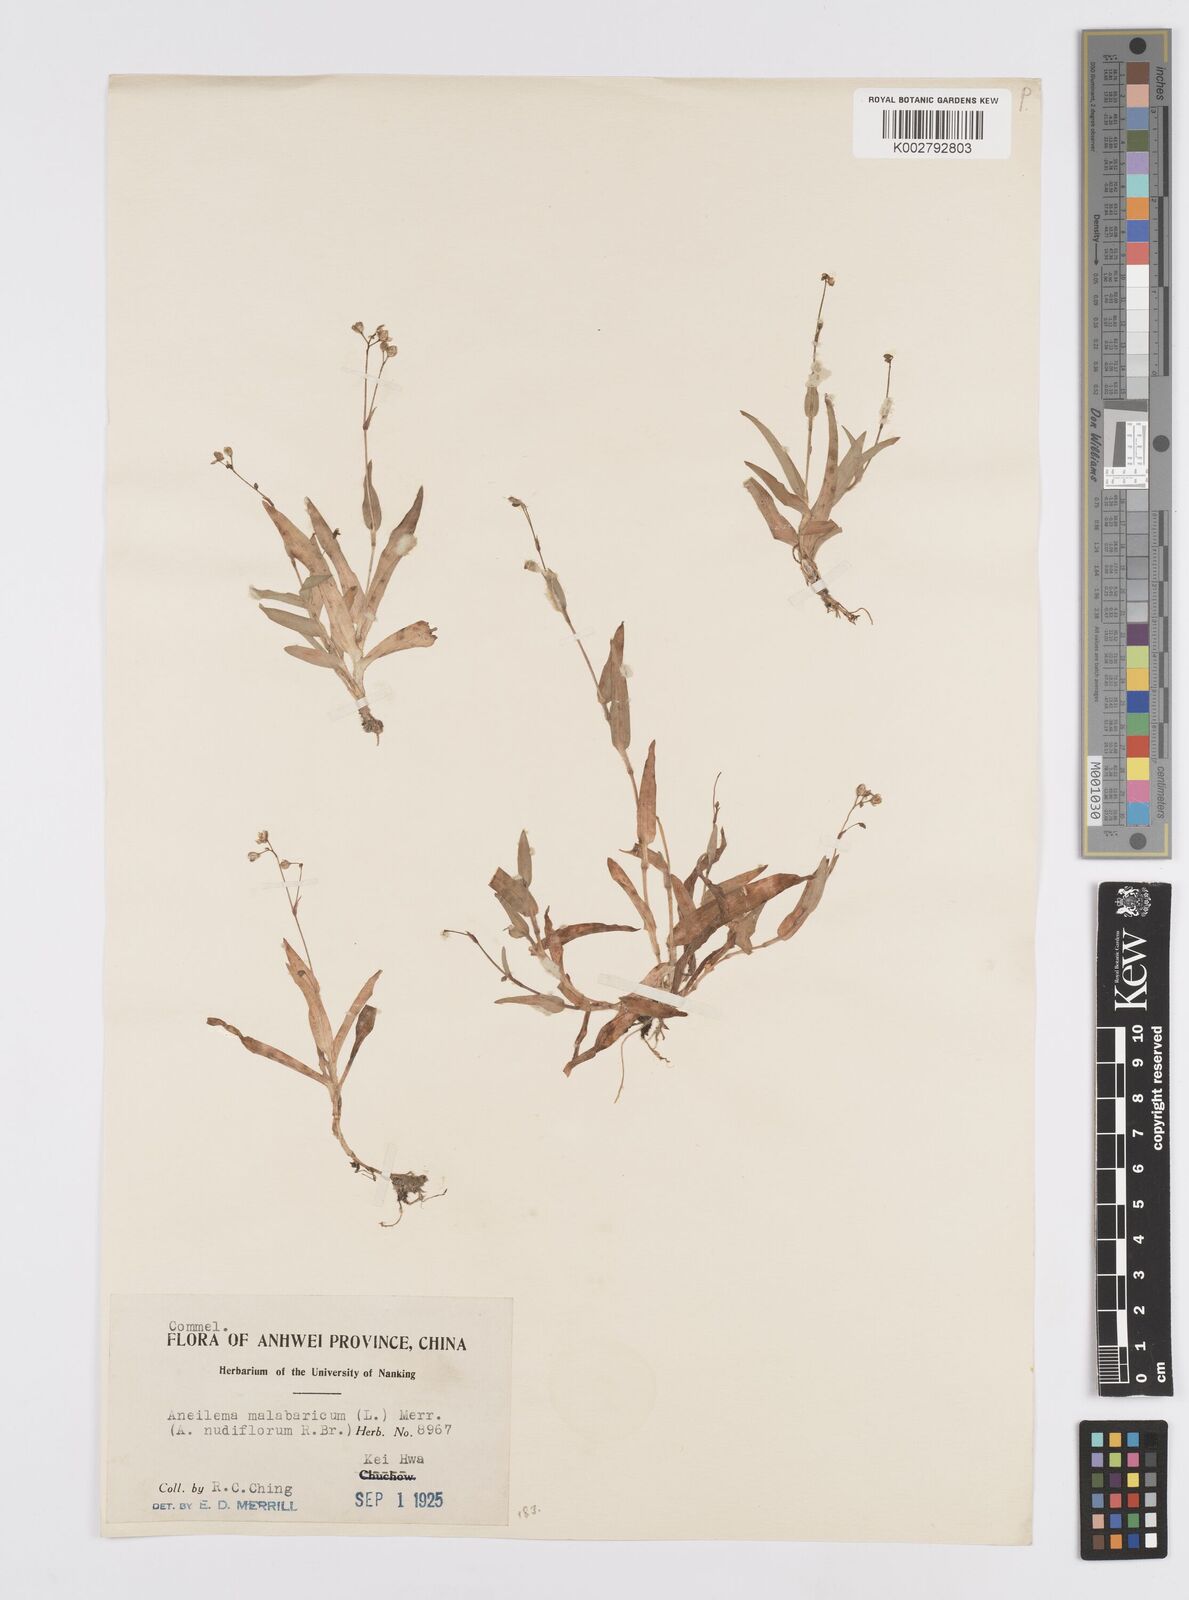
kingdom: Plantae
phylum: Tracheophyta
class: Liliopsida
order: Commelinales
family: Commelinaceae
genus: Murdannia
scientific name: Murdannia
